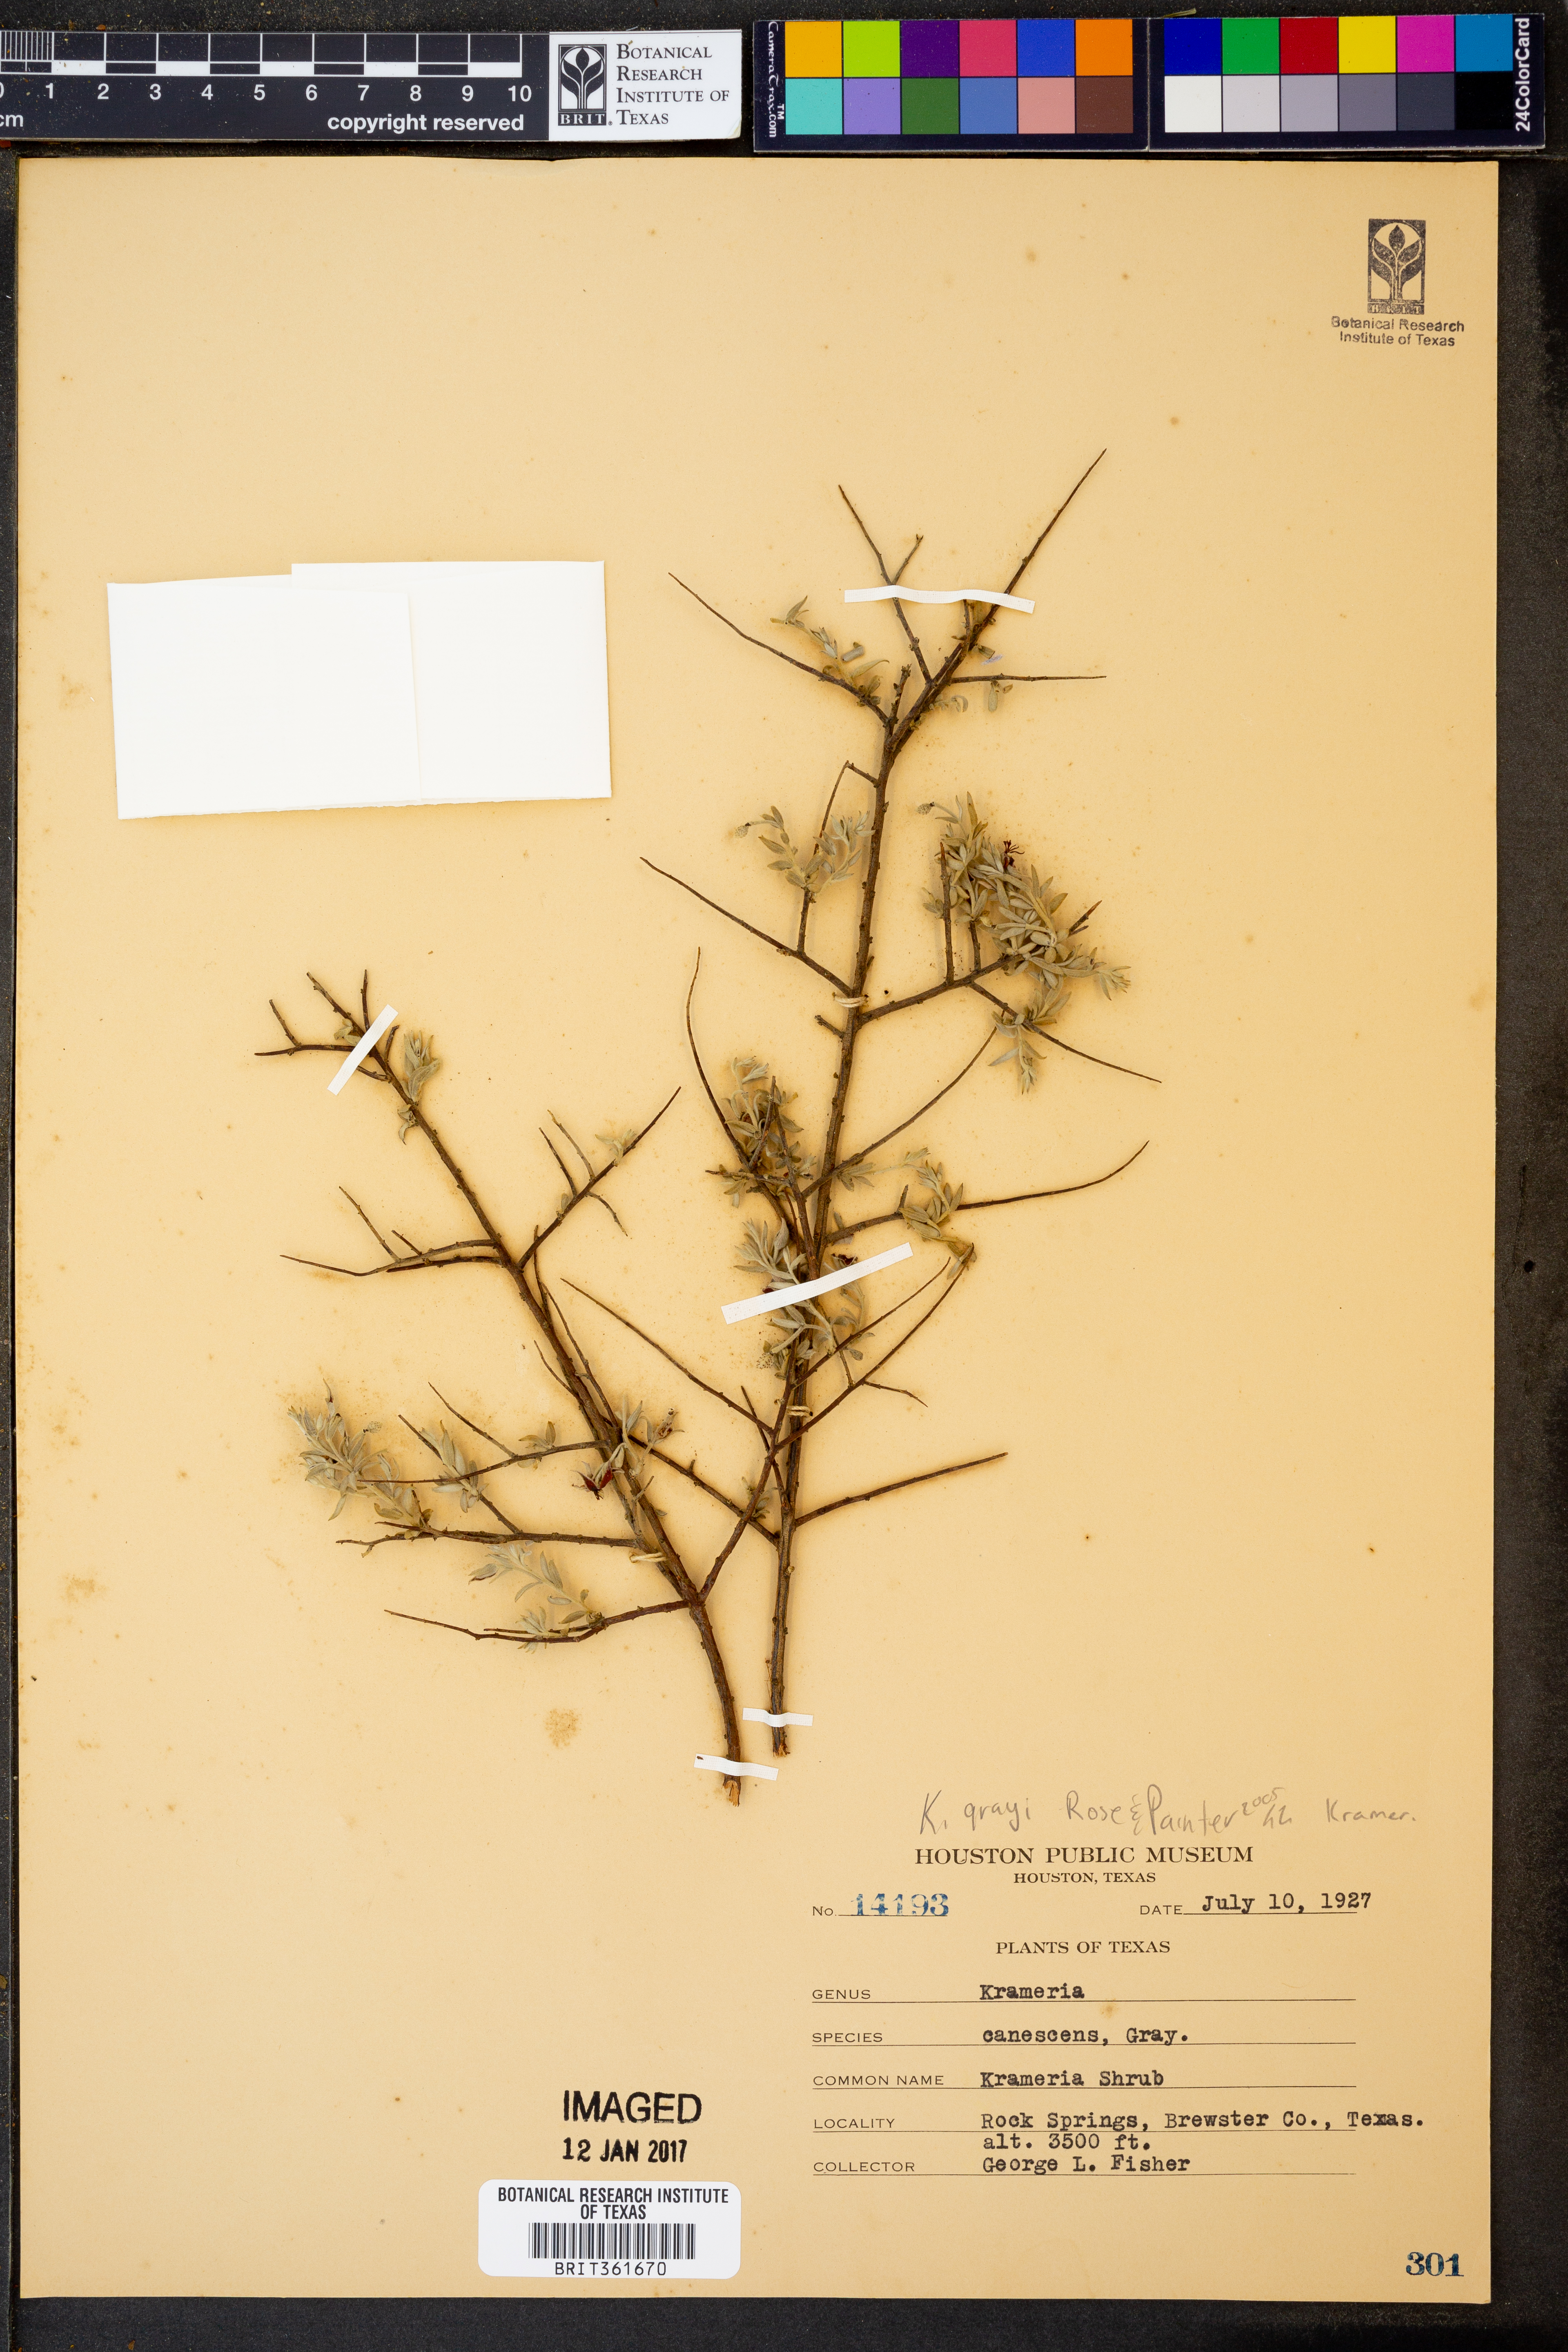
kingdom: Plantae
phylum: Tracheophyta
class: Magnoliopsida
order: Zygophyllales
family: Krameriaceae
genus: Krameria
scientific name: Krameria bicolor
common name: White ratany
